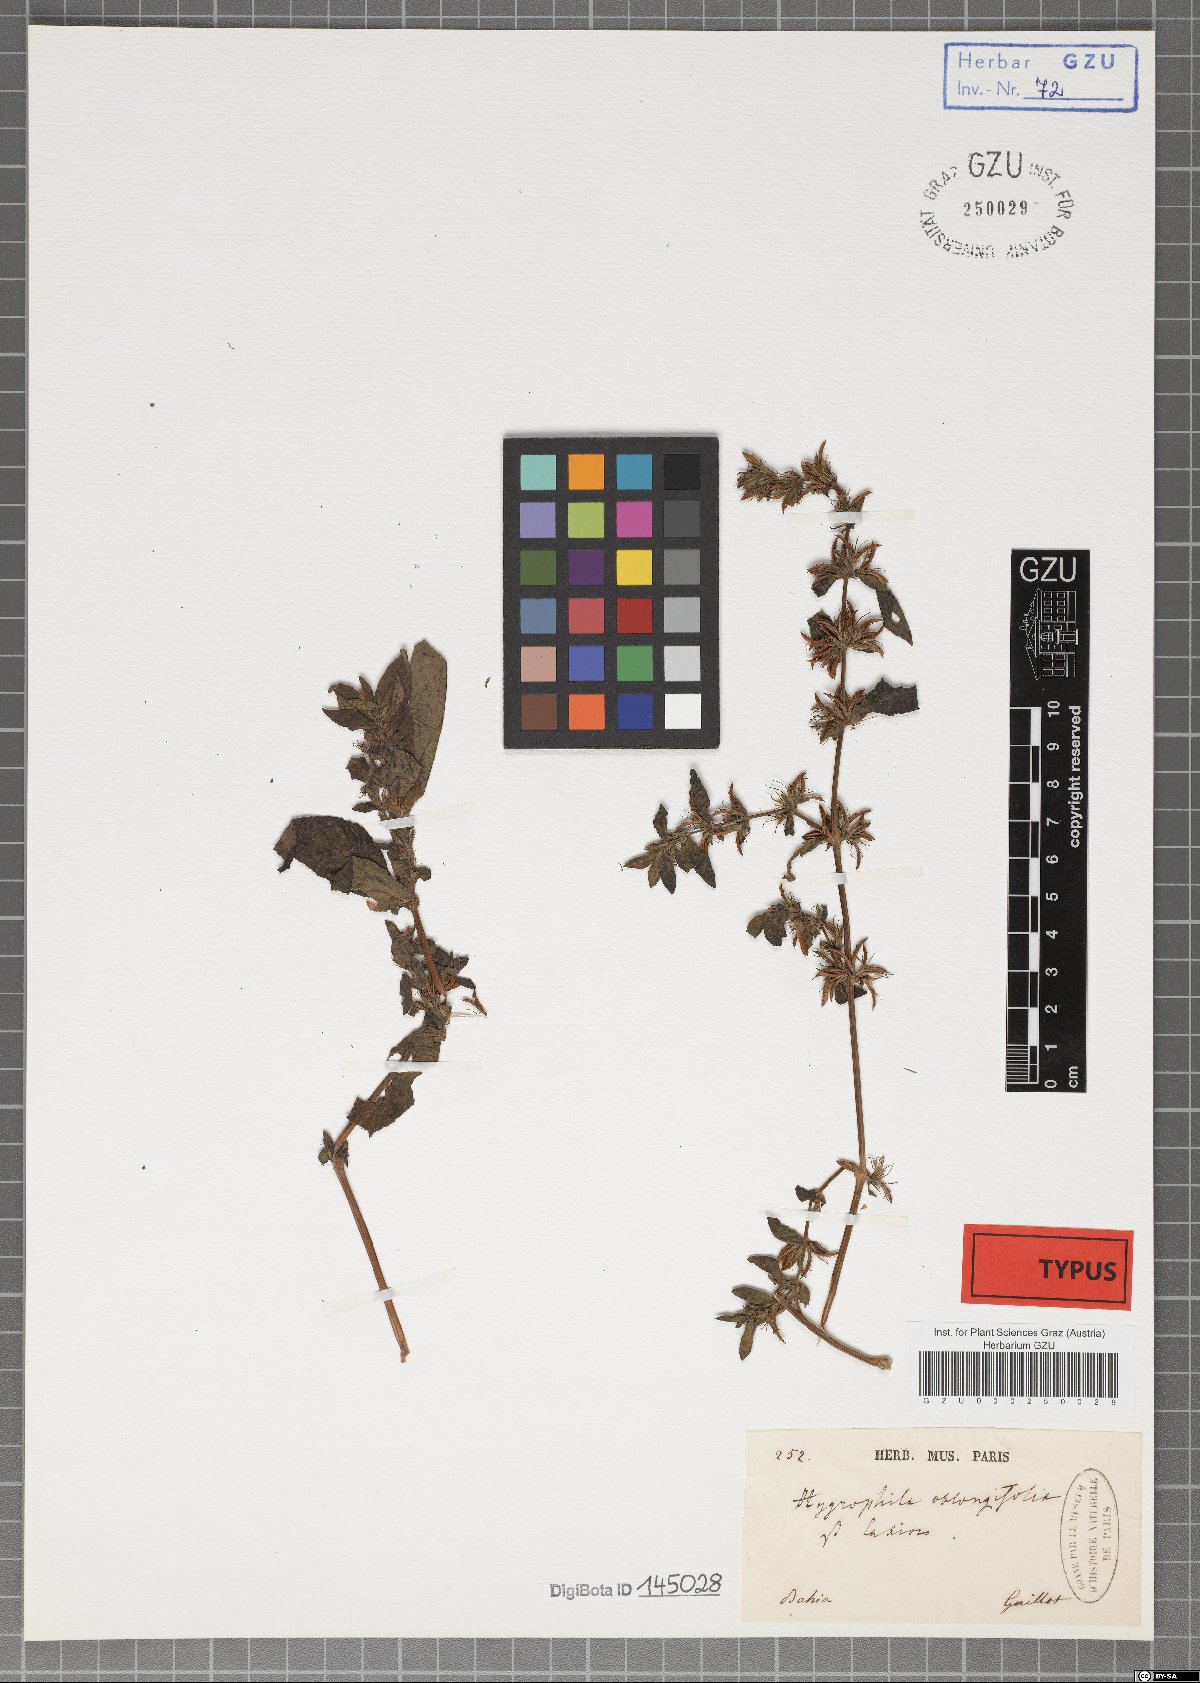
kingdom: Plantae
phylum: Tracheophyta
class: Magnoliopsida
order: Lamiales
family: Acanthaceae
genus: Ruellia
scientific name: Ruellia caroliniensis
